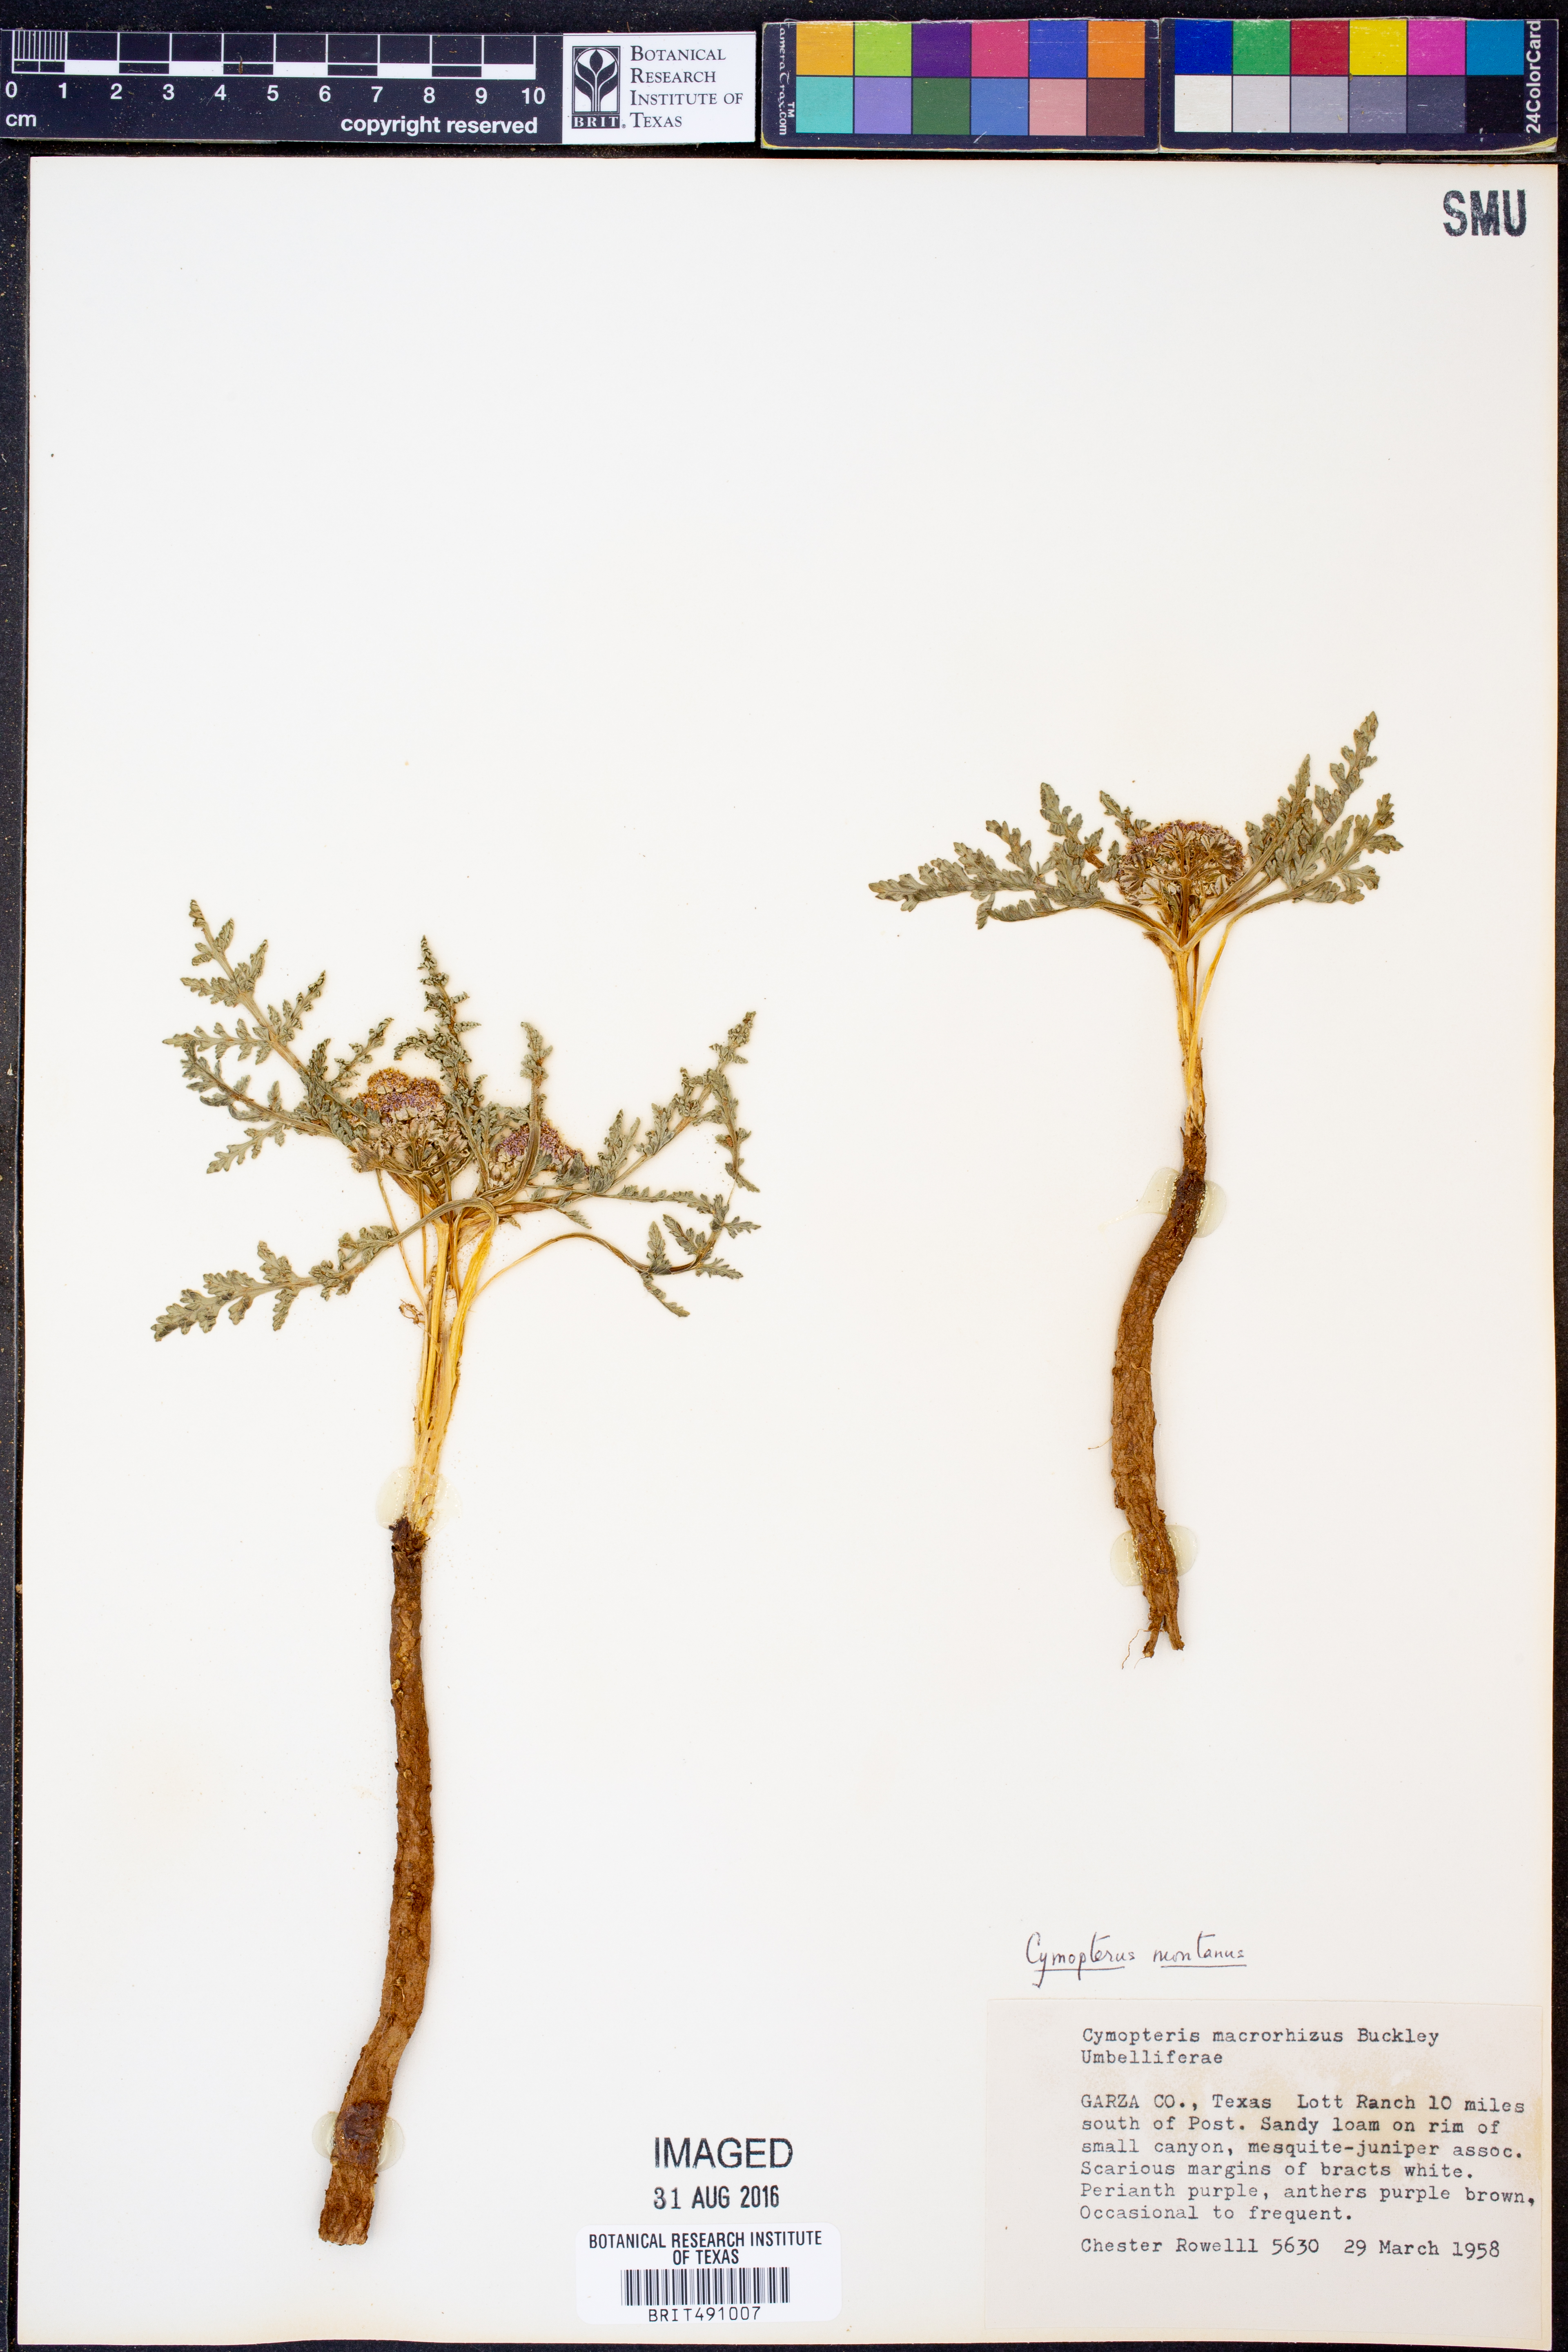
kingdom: Plantae
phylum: Tracheophyta
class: Magnoliopsida
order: Apiales
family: Apiaceae
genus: Vesper
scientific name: Vesper montanus
